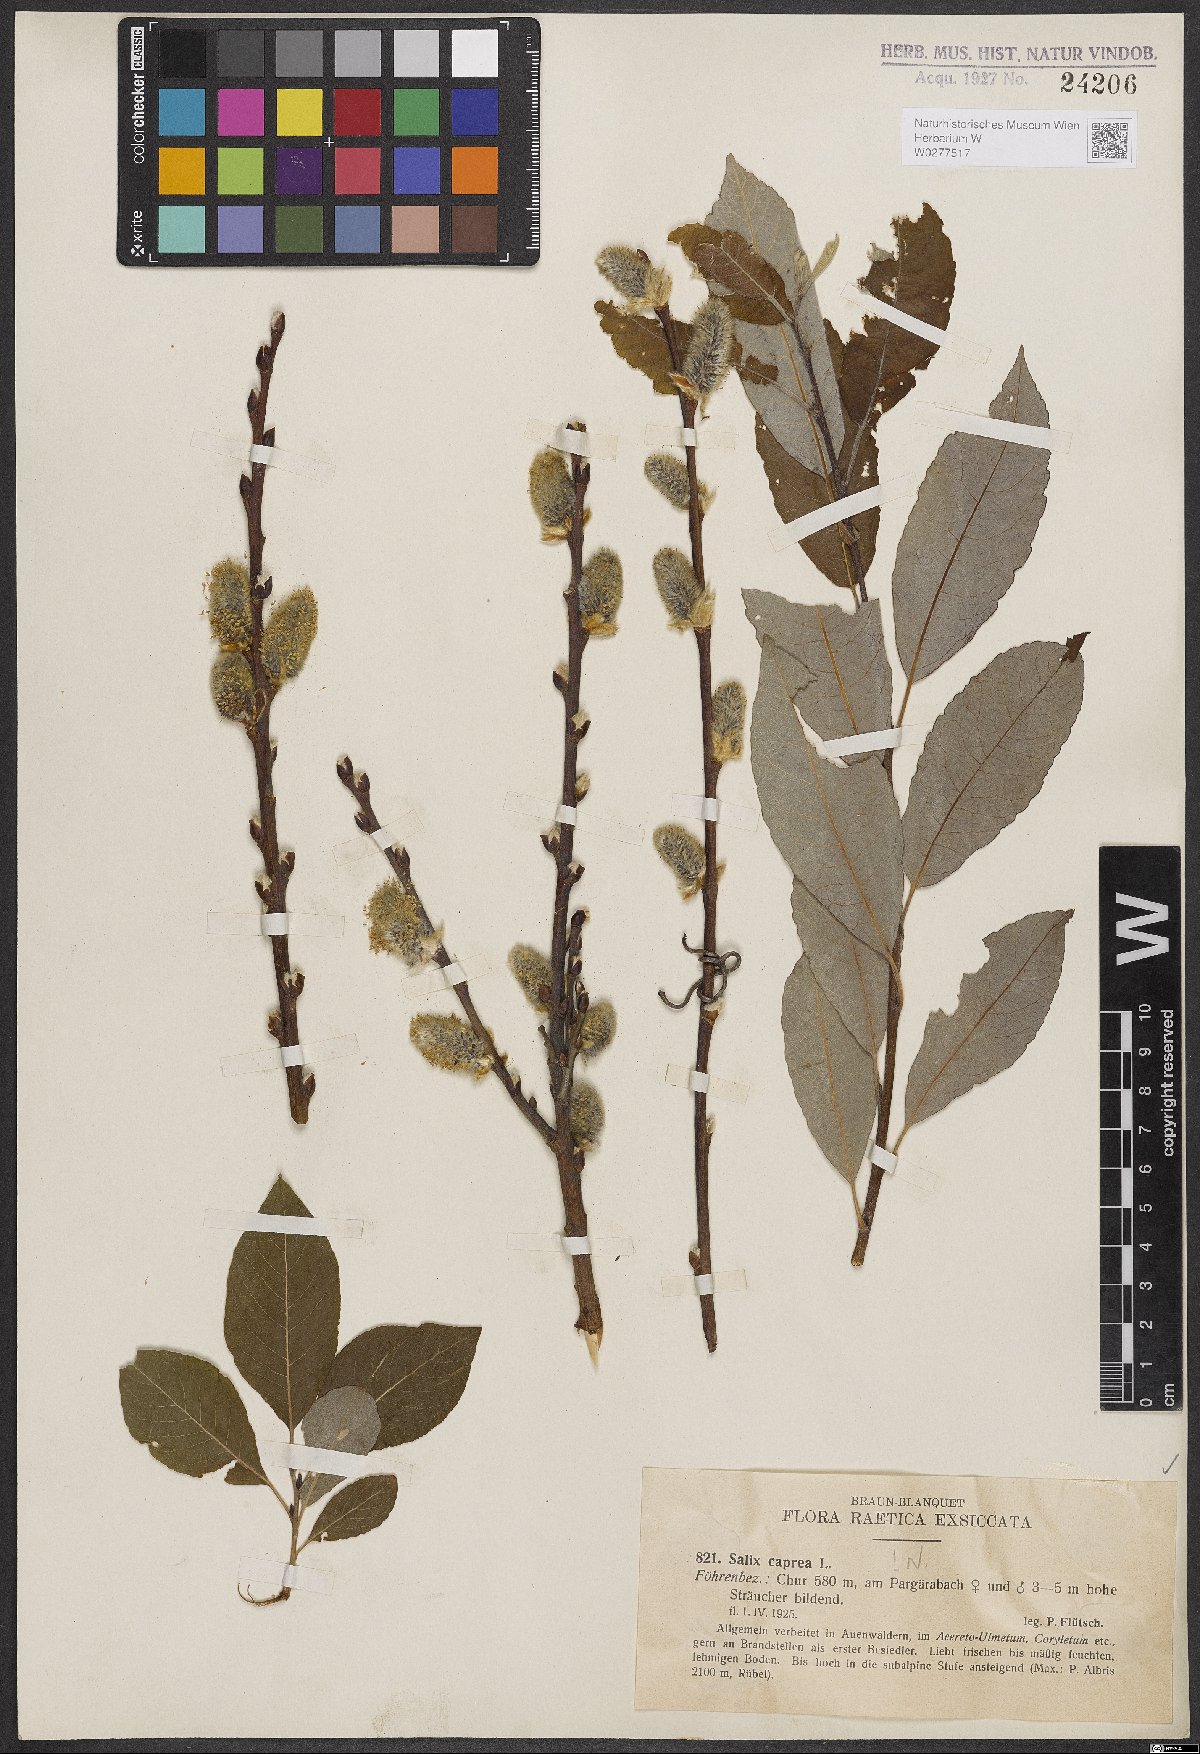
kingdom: Plantae
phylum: Tracheophyta
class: Magnoliopsida
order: Malpighiales
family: Salicaceae
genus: Salix
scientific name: Salix caprea
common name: Goat willow
